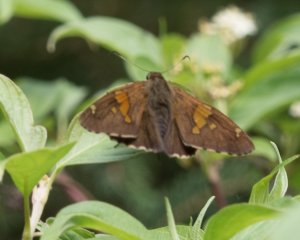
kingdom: Animalia
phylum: Arthropoda
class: Insecta
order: Lepidoptera
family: Hesperiidae
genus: Epargyreus
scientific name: Epargyreus clarus
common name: Silver-spotted Skipper
